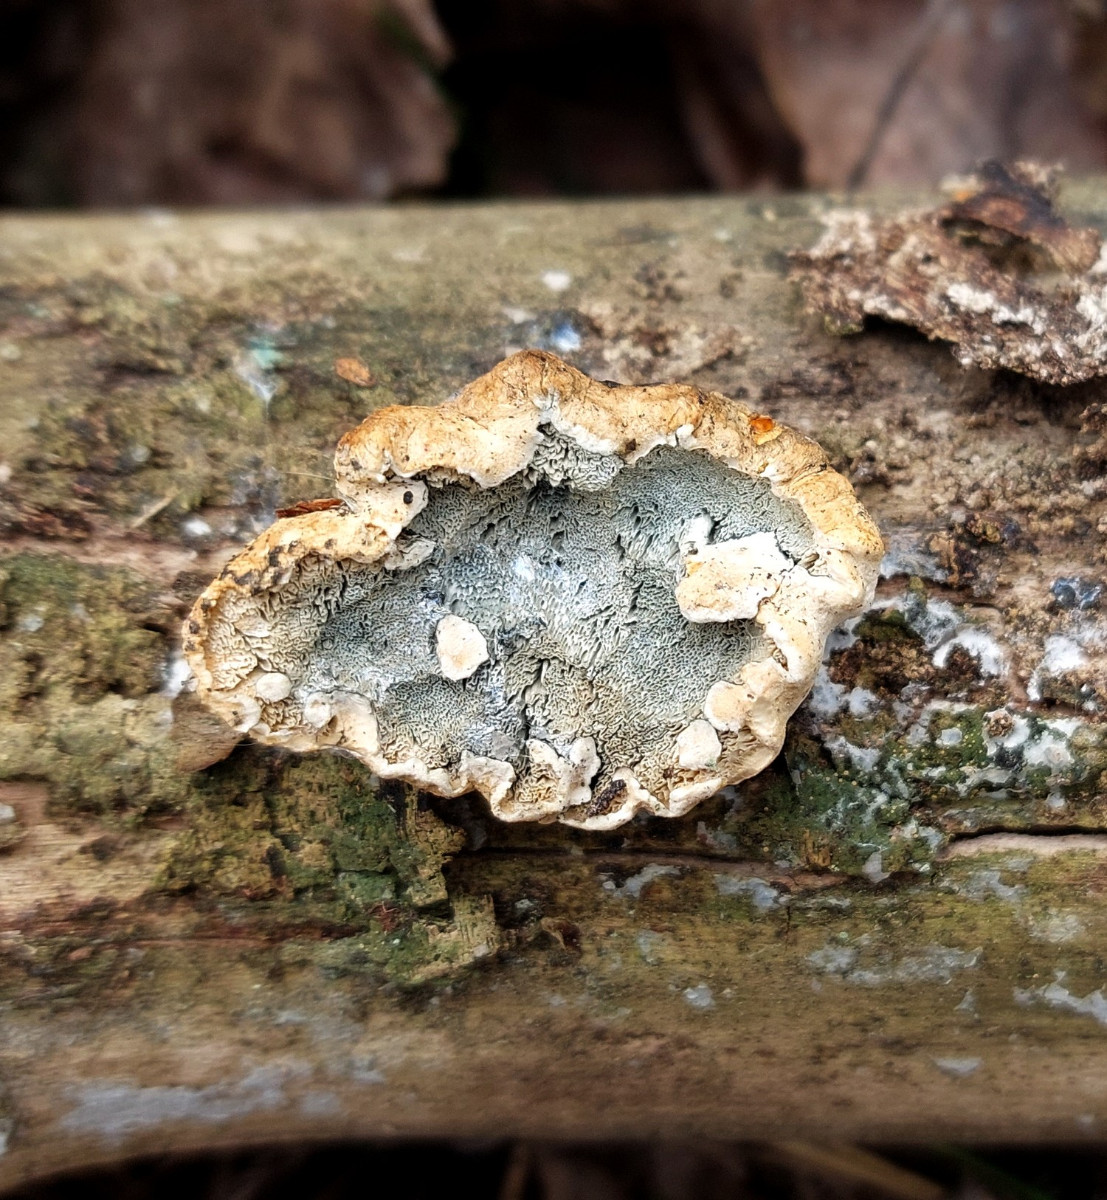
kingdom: Fungi
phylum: Basidiomycota
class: Agaricomycetes
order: Polyporales
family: Incrustoporiaceae
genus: Skeletocutis
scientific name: Skeletocutis nemoralis
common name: stor krystalporesvamp
